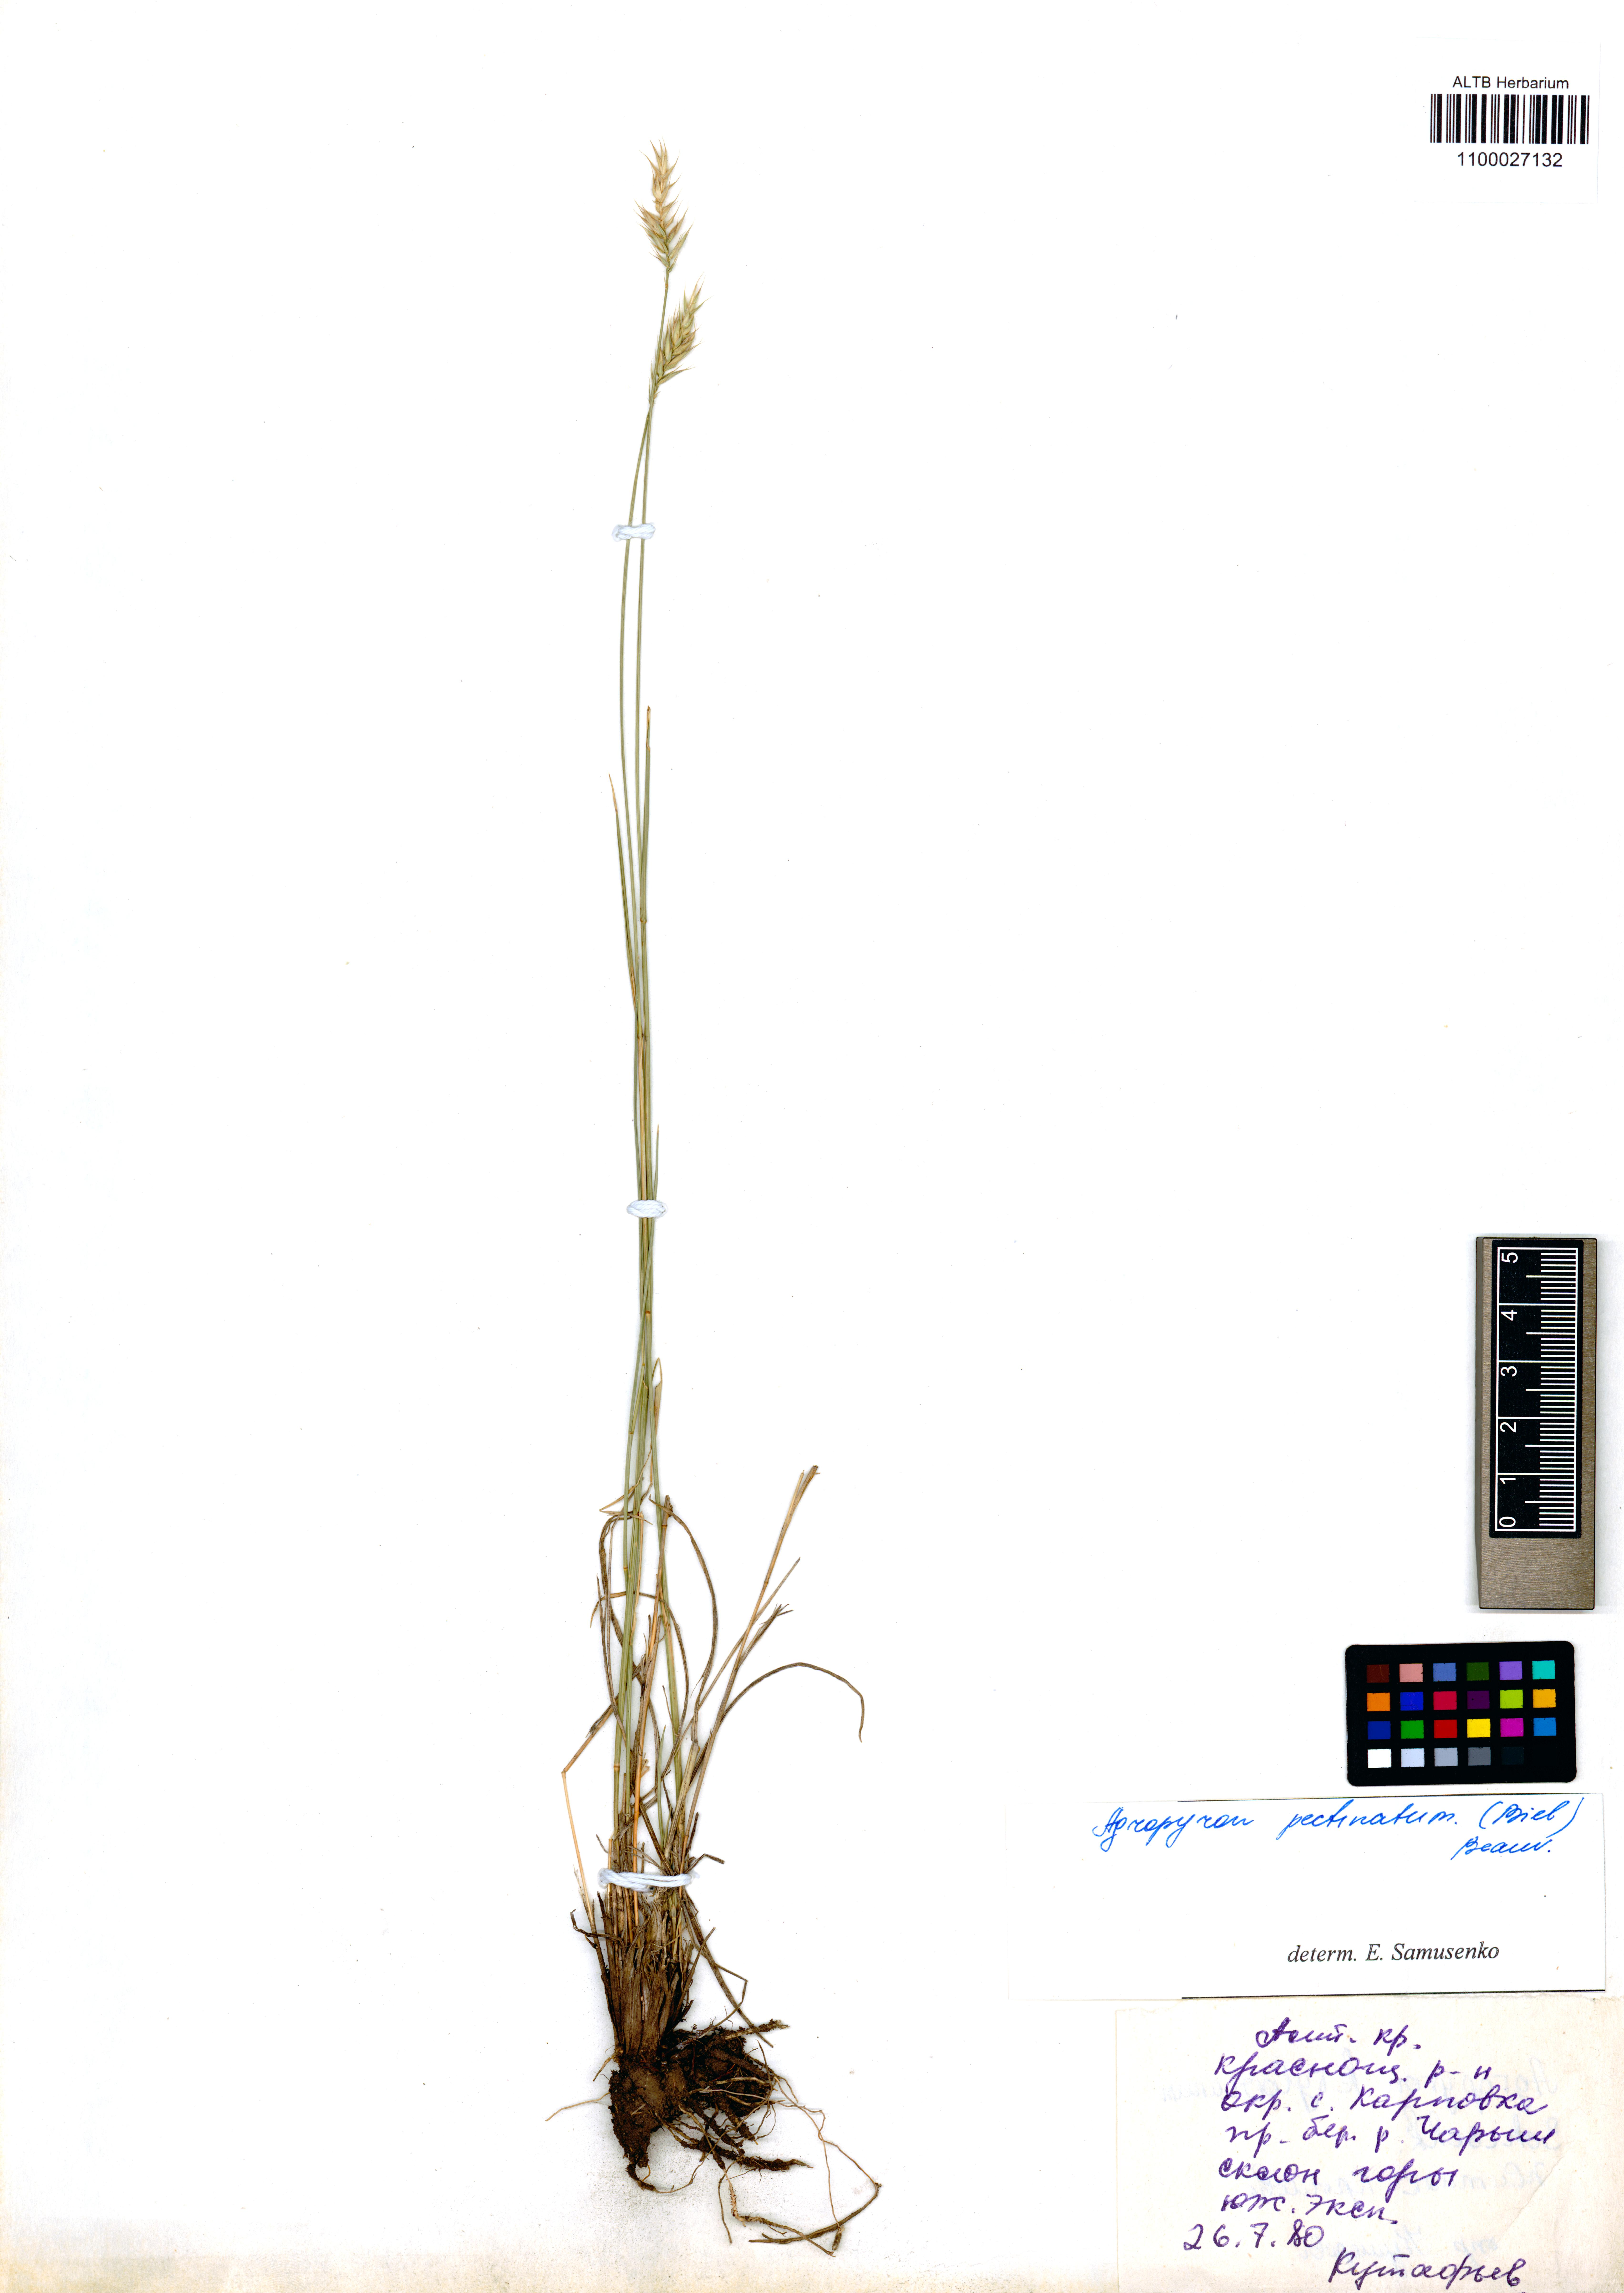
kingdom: Plantae
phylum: Tracheophyta
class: Liliopsida
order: Poales
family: Poaceae
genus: Agropyron
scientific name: Agropyron cristatum
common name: Crested wheatgrass
